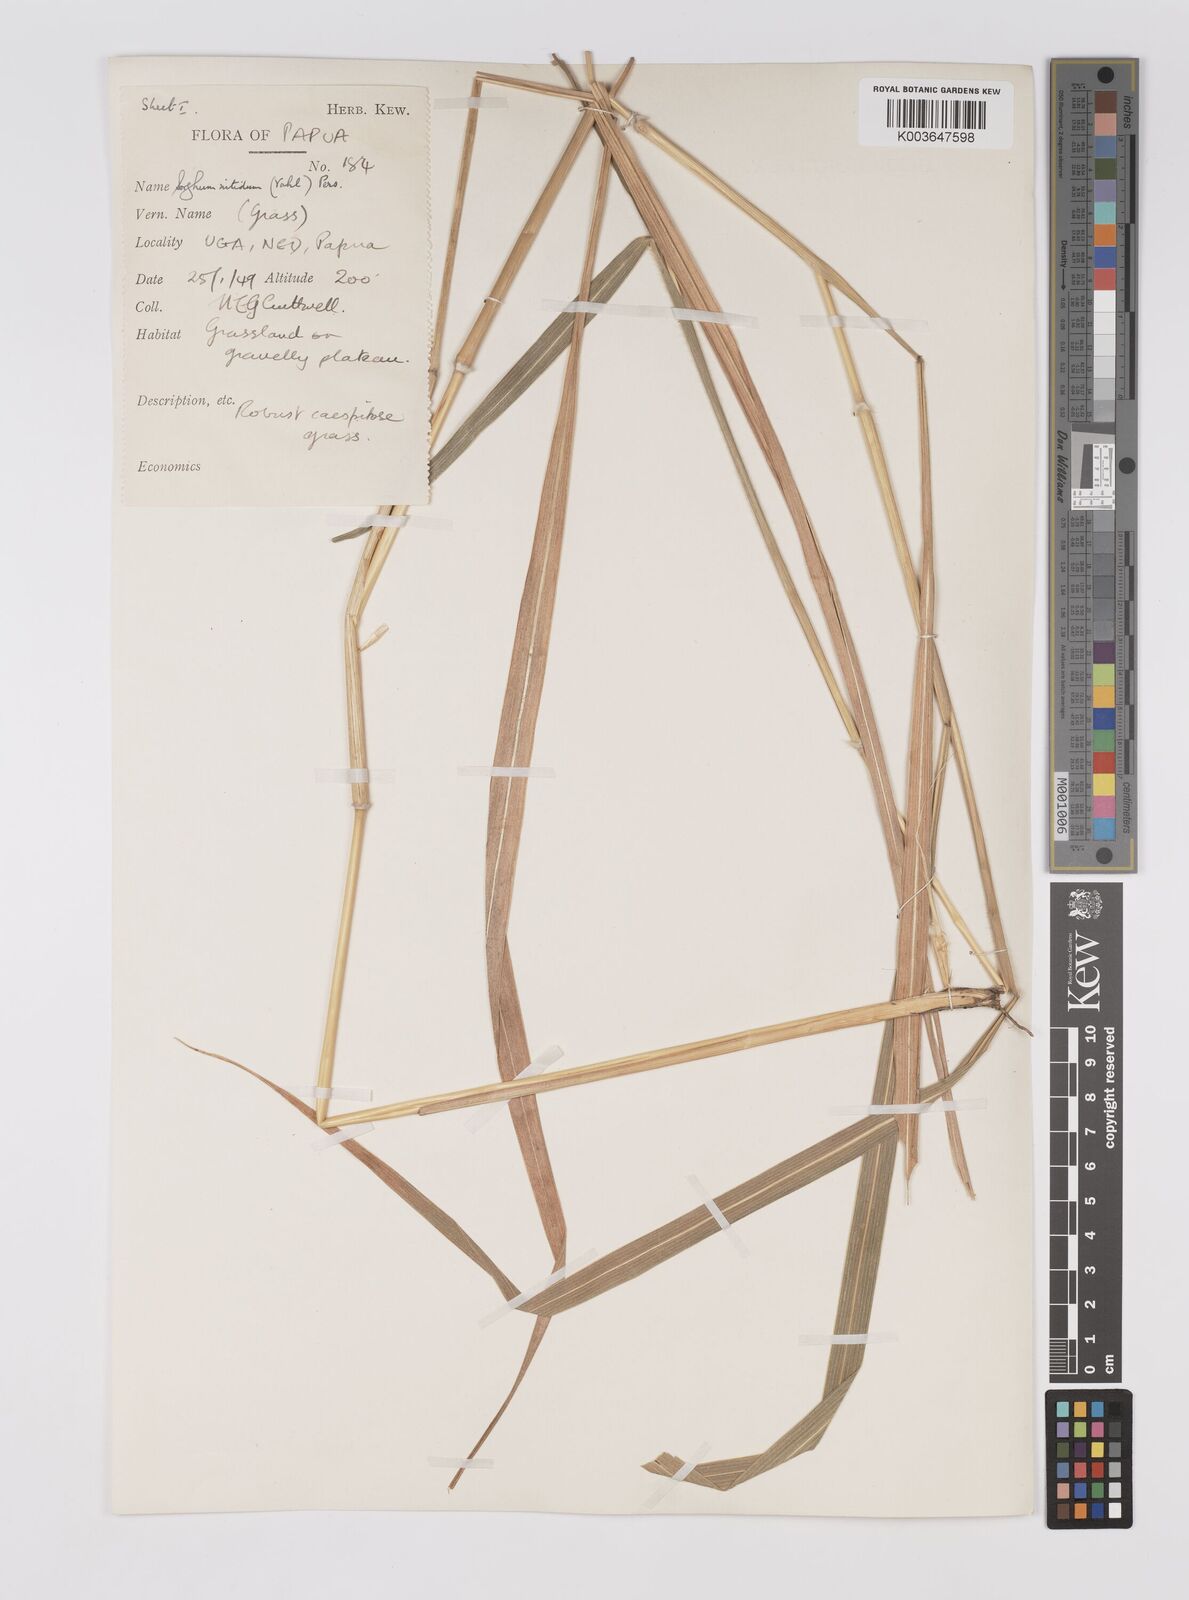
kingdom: Plantae
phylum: Tracheophyta
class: Liliopsida
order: Poales
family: Poaceae
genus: Sorghum
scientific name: Sorghum nitidum
